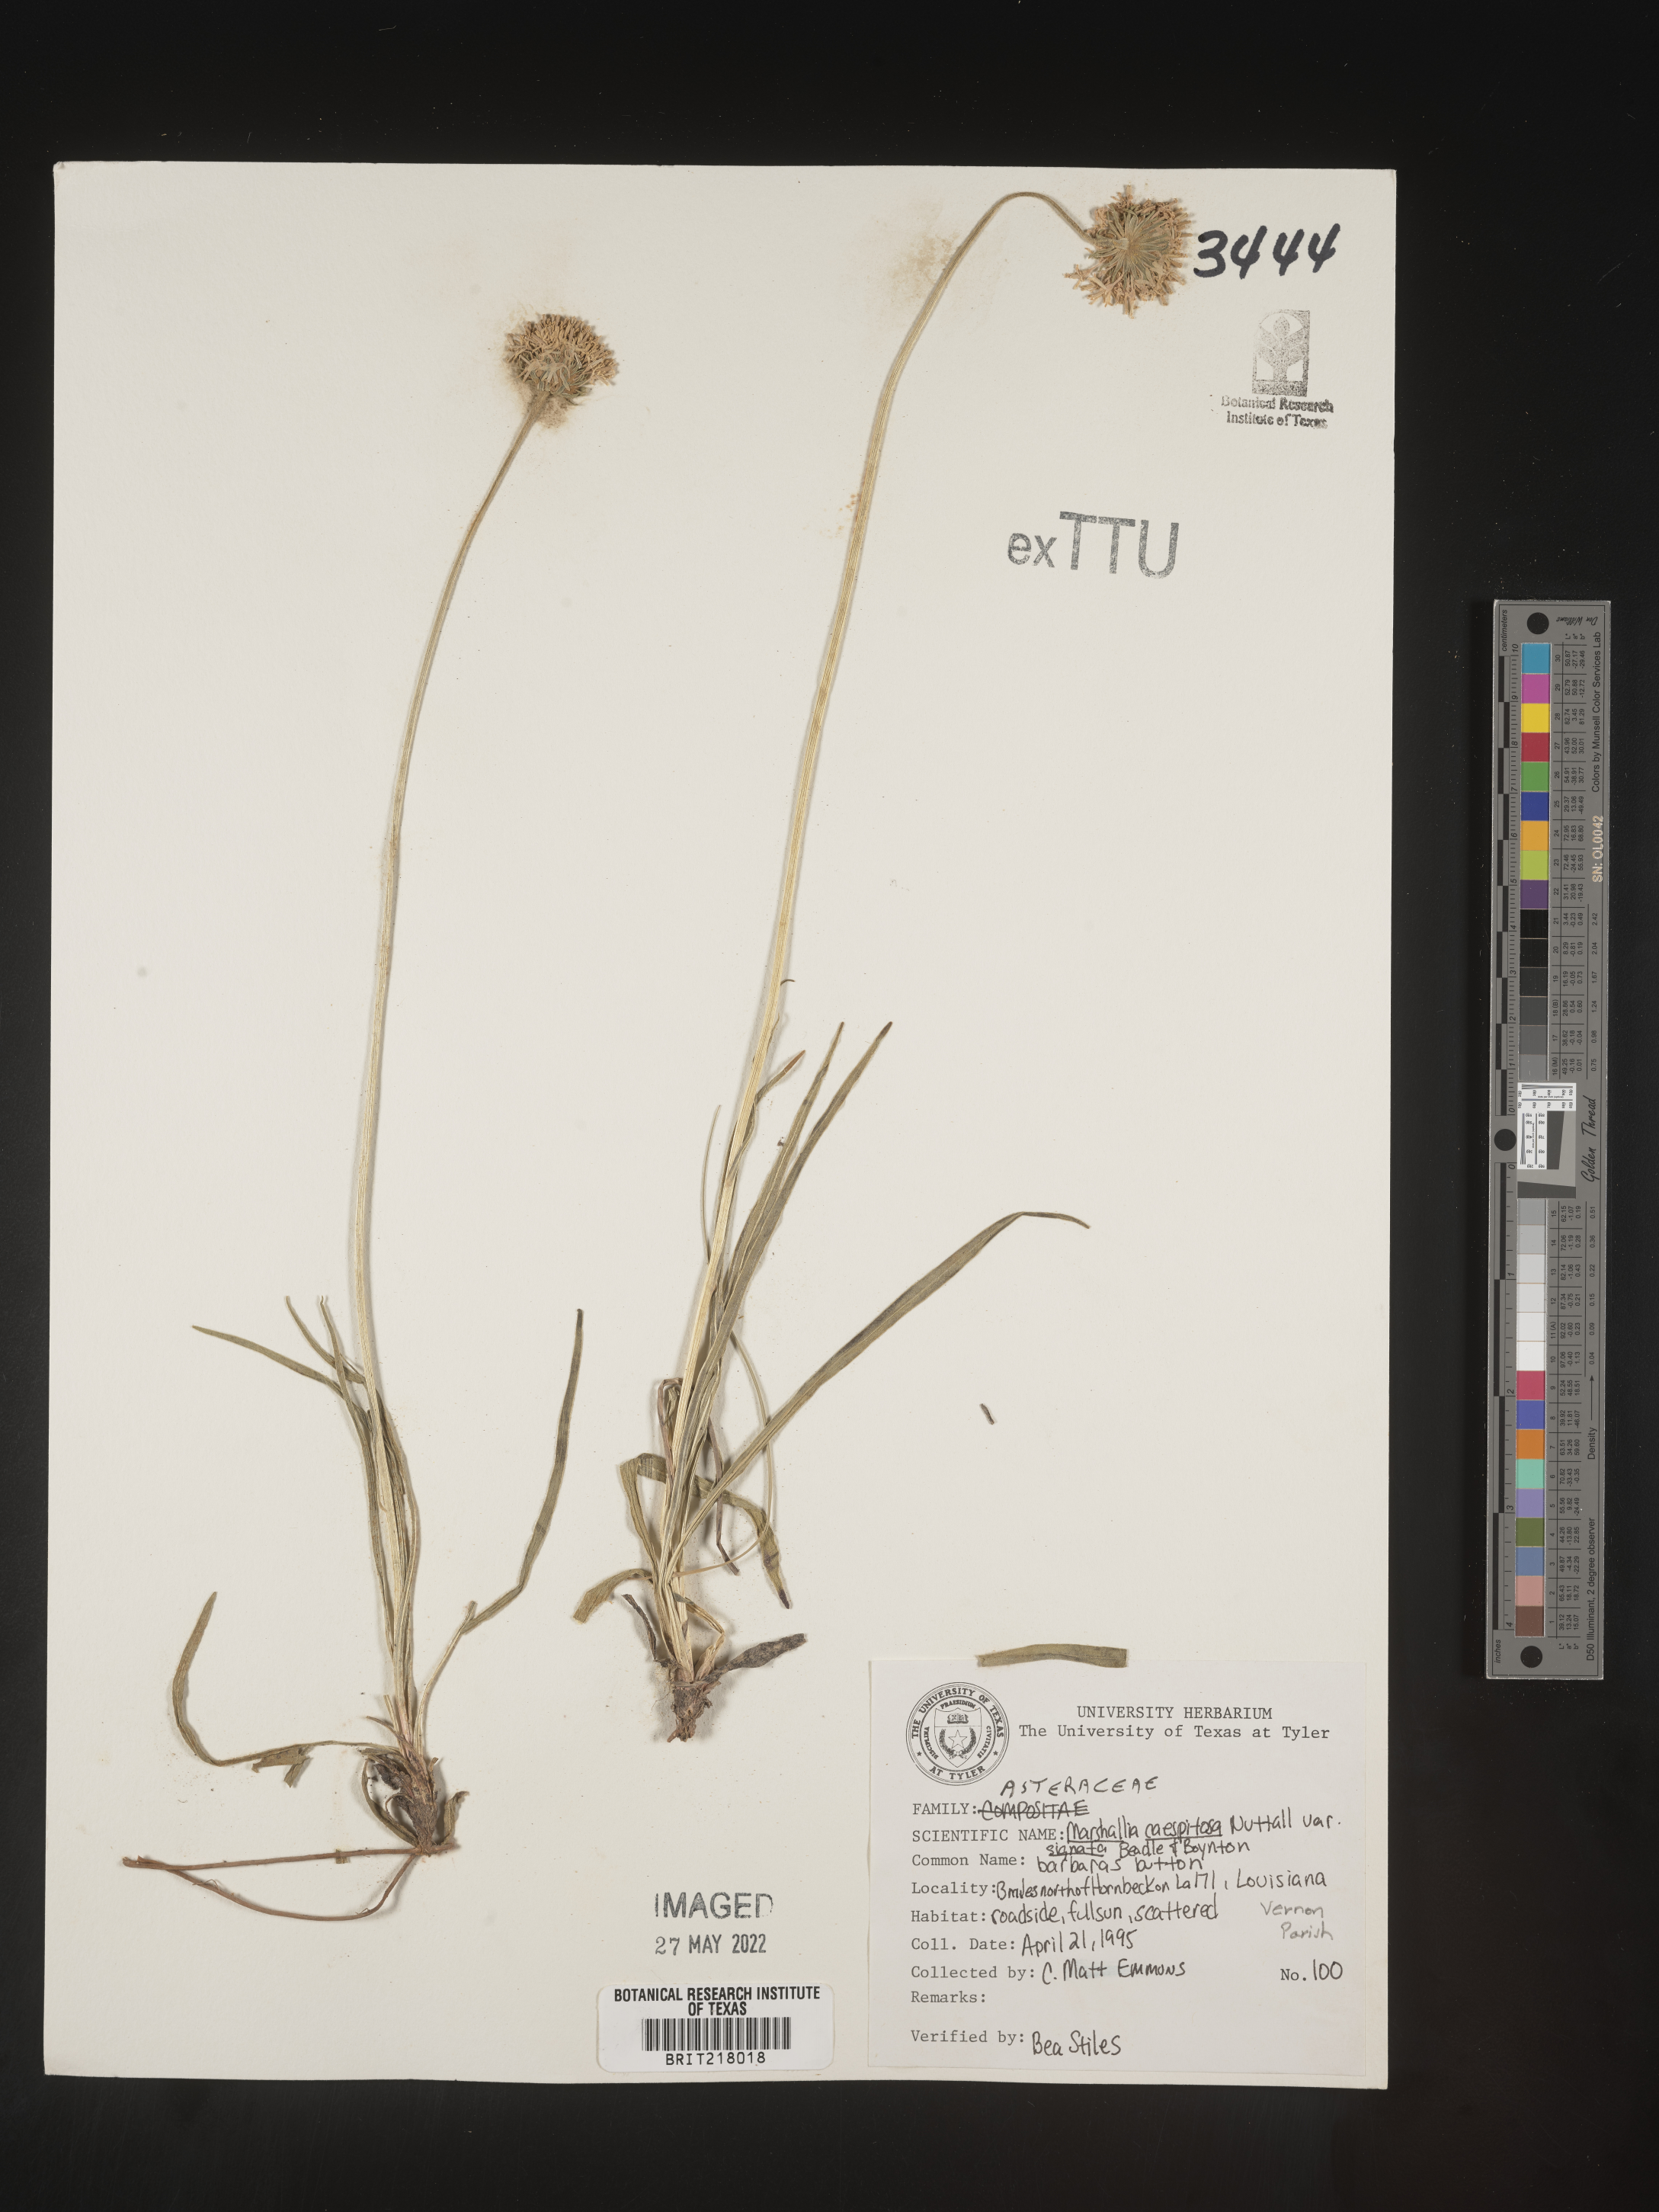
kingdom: Plantae
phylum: Tracheophyta
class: Magnoliopsida
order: Asterales
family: Asteraceae
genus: Marshallia
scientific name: Marshallia caespitosa
